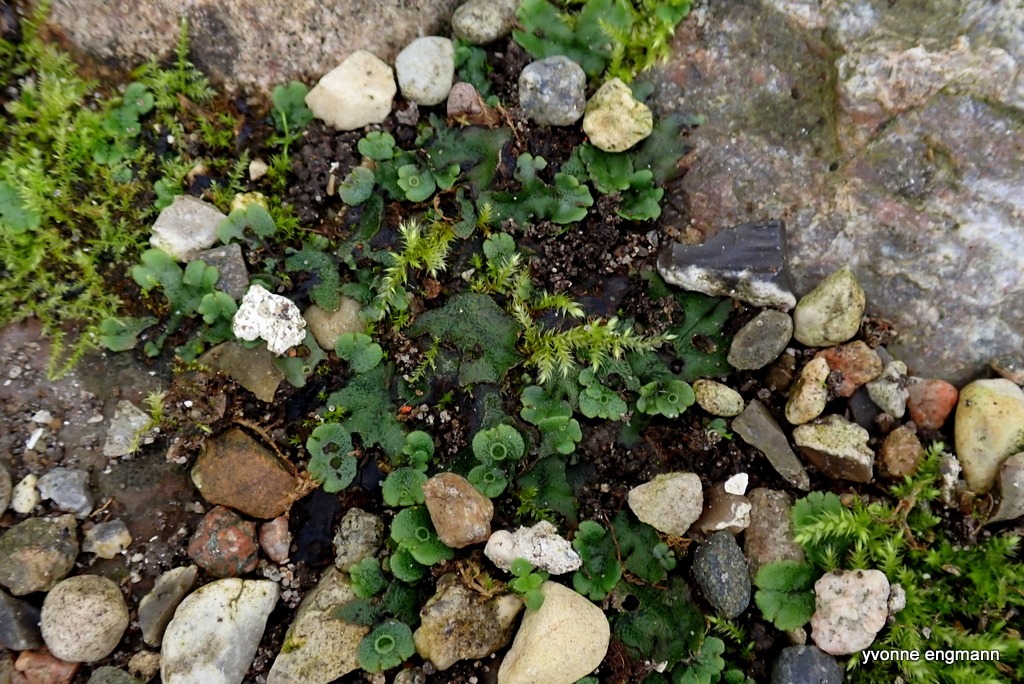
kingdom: Plantae
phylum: Marchantiophyta
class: Marchantiopsida
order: Marchantiales
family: Marchantiaceae
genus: Marchantia
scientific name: Marchantia polymorpha
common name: Almindelig lungemos (underart)
